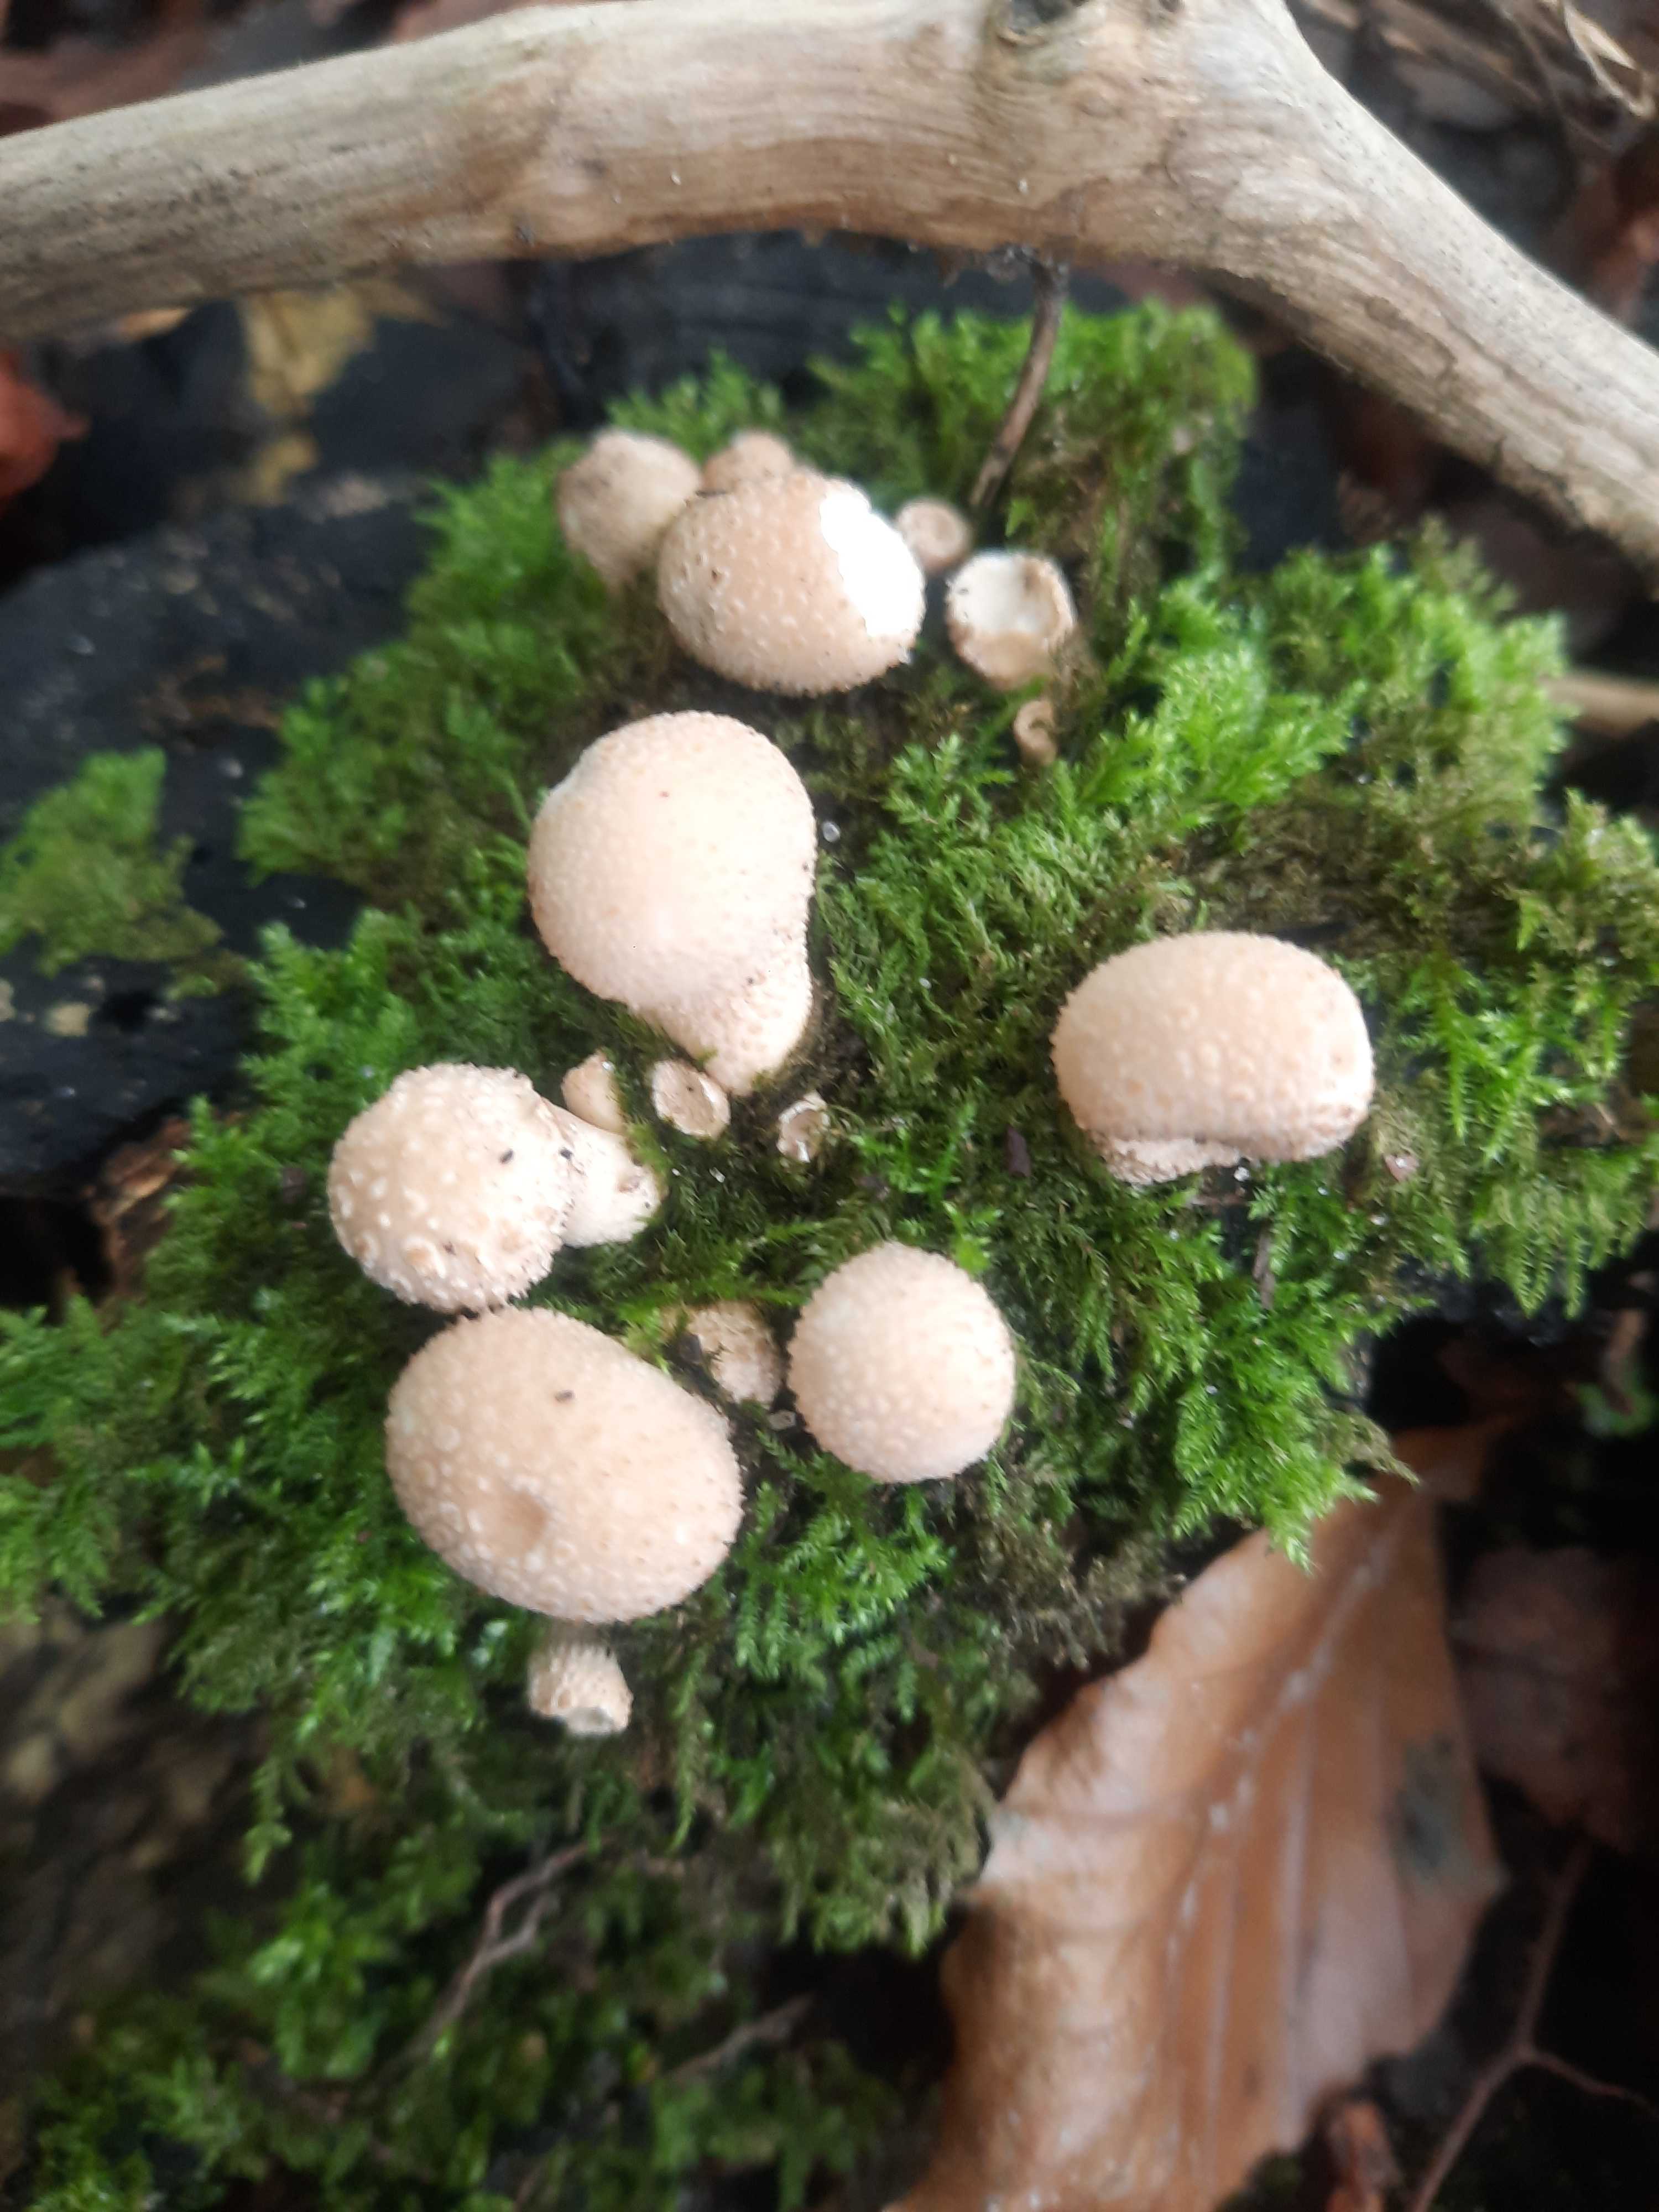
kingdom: Fungi
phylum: Basidiomycota
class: Agaricomycetes
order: Agaricales
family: Lycoperdaceae
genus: Apioperdon
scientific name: Apioperdon pyriforme
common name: pære-støvbold
